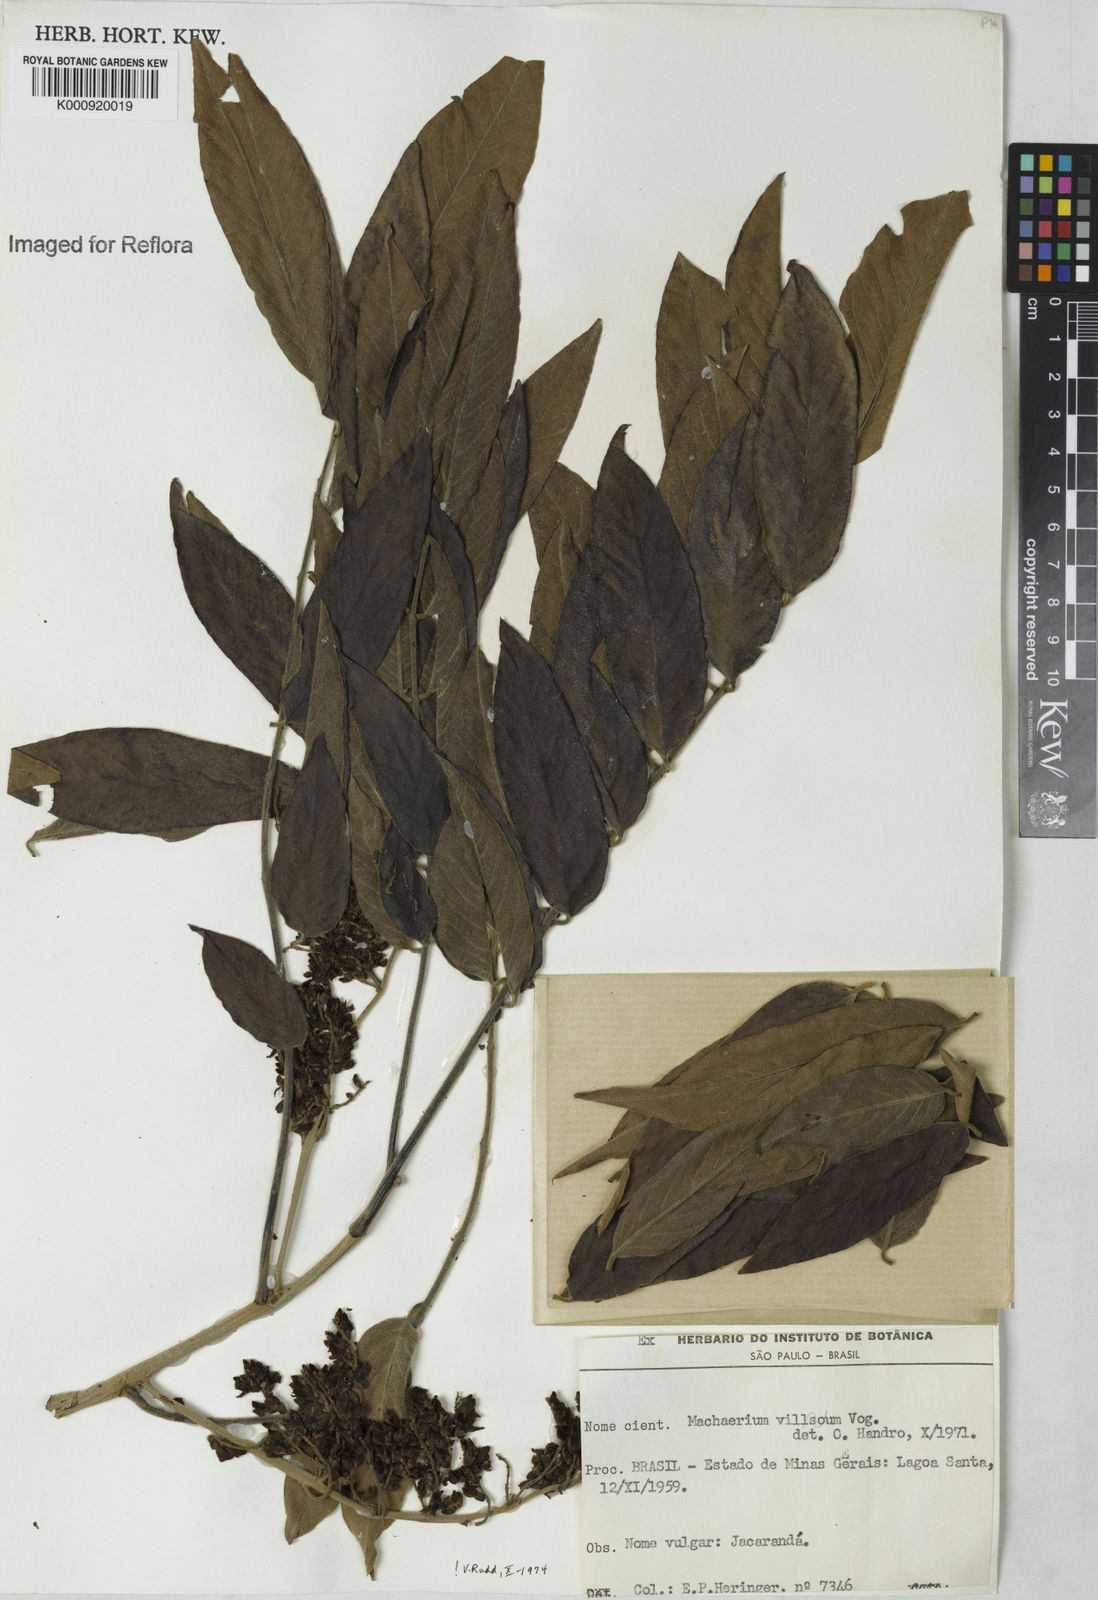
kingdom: Plantae
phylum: Tracheophyta
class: Magnoliopsida
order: Fabales
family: Fabaceae
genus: Machaerium
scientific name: Machaerium villosum
